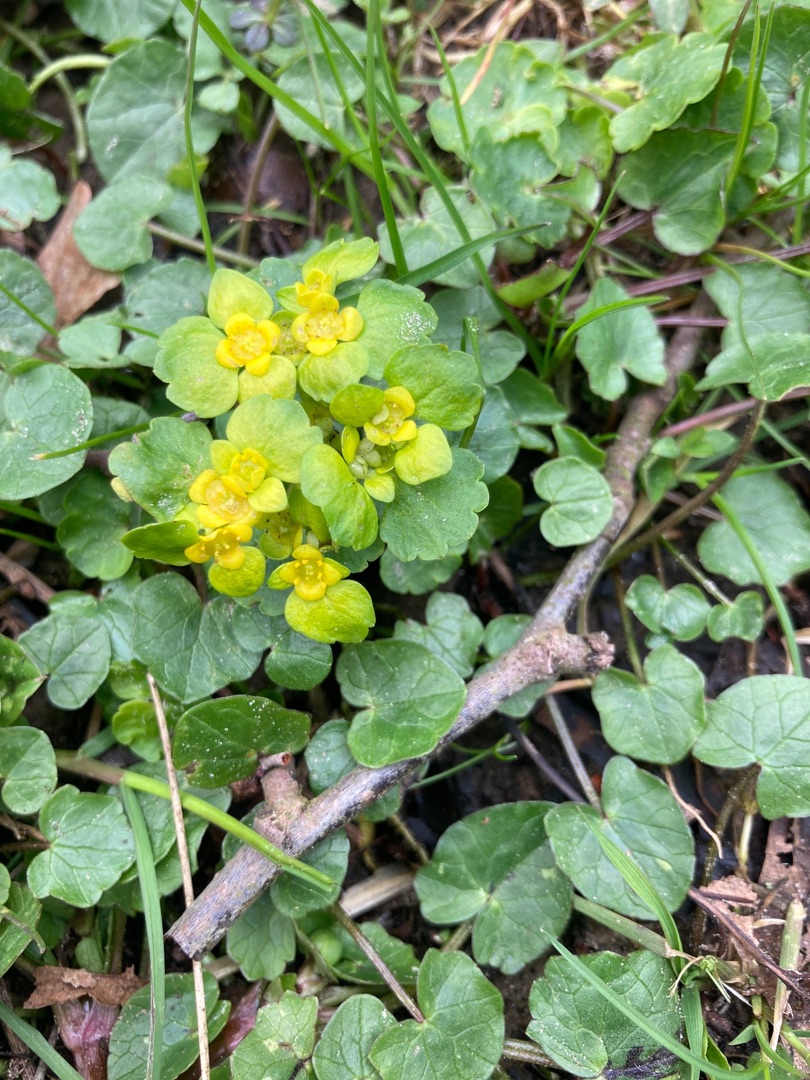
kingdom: Plantae
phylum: Tracheophyta
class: Magnoliopsida
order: Saxifragales
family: Saxifragaceae
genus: Chrysosplenium
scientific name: Chrysosplenium alternifolium
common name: Almindelig milturt
